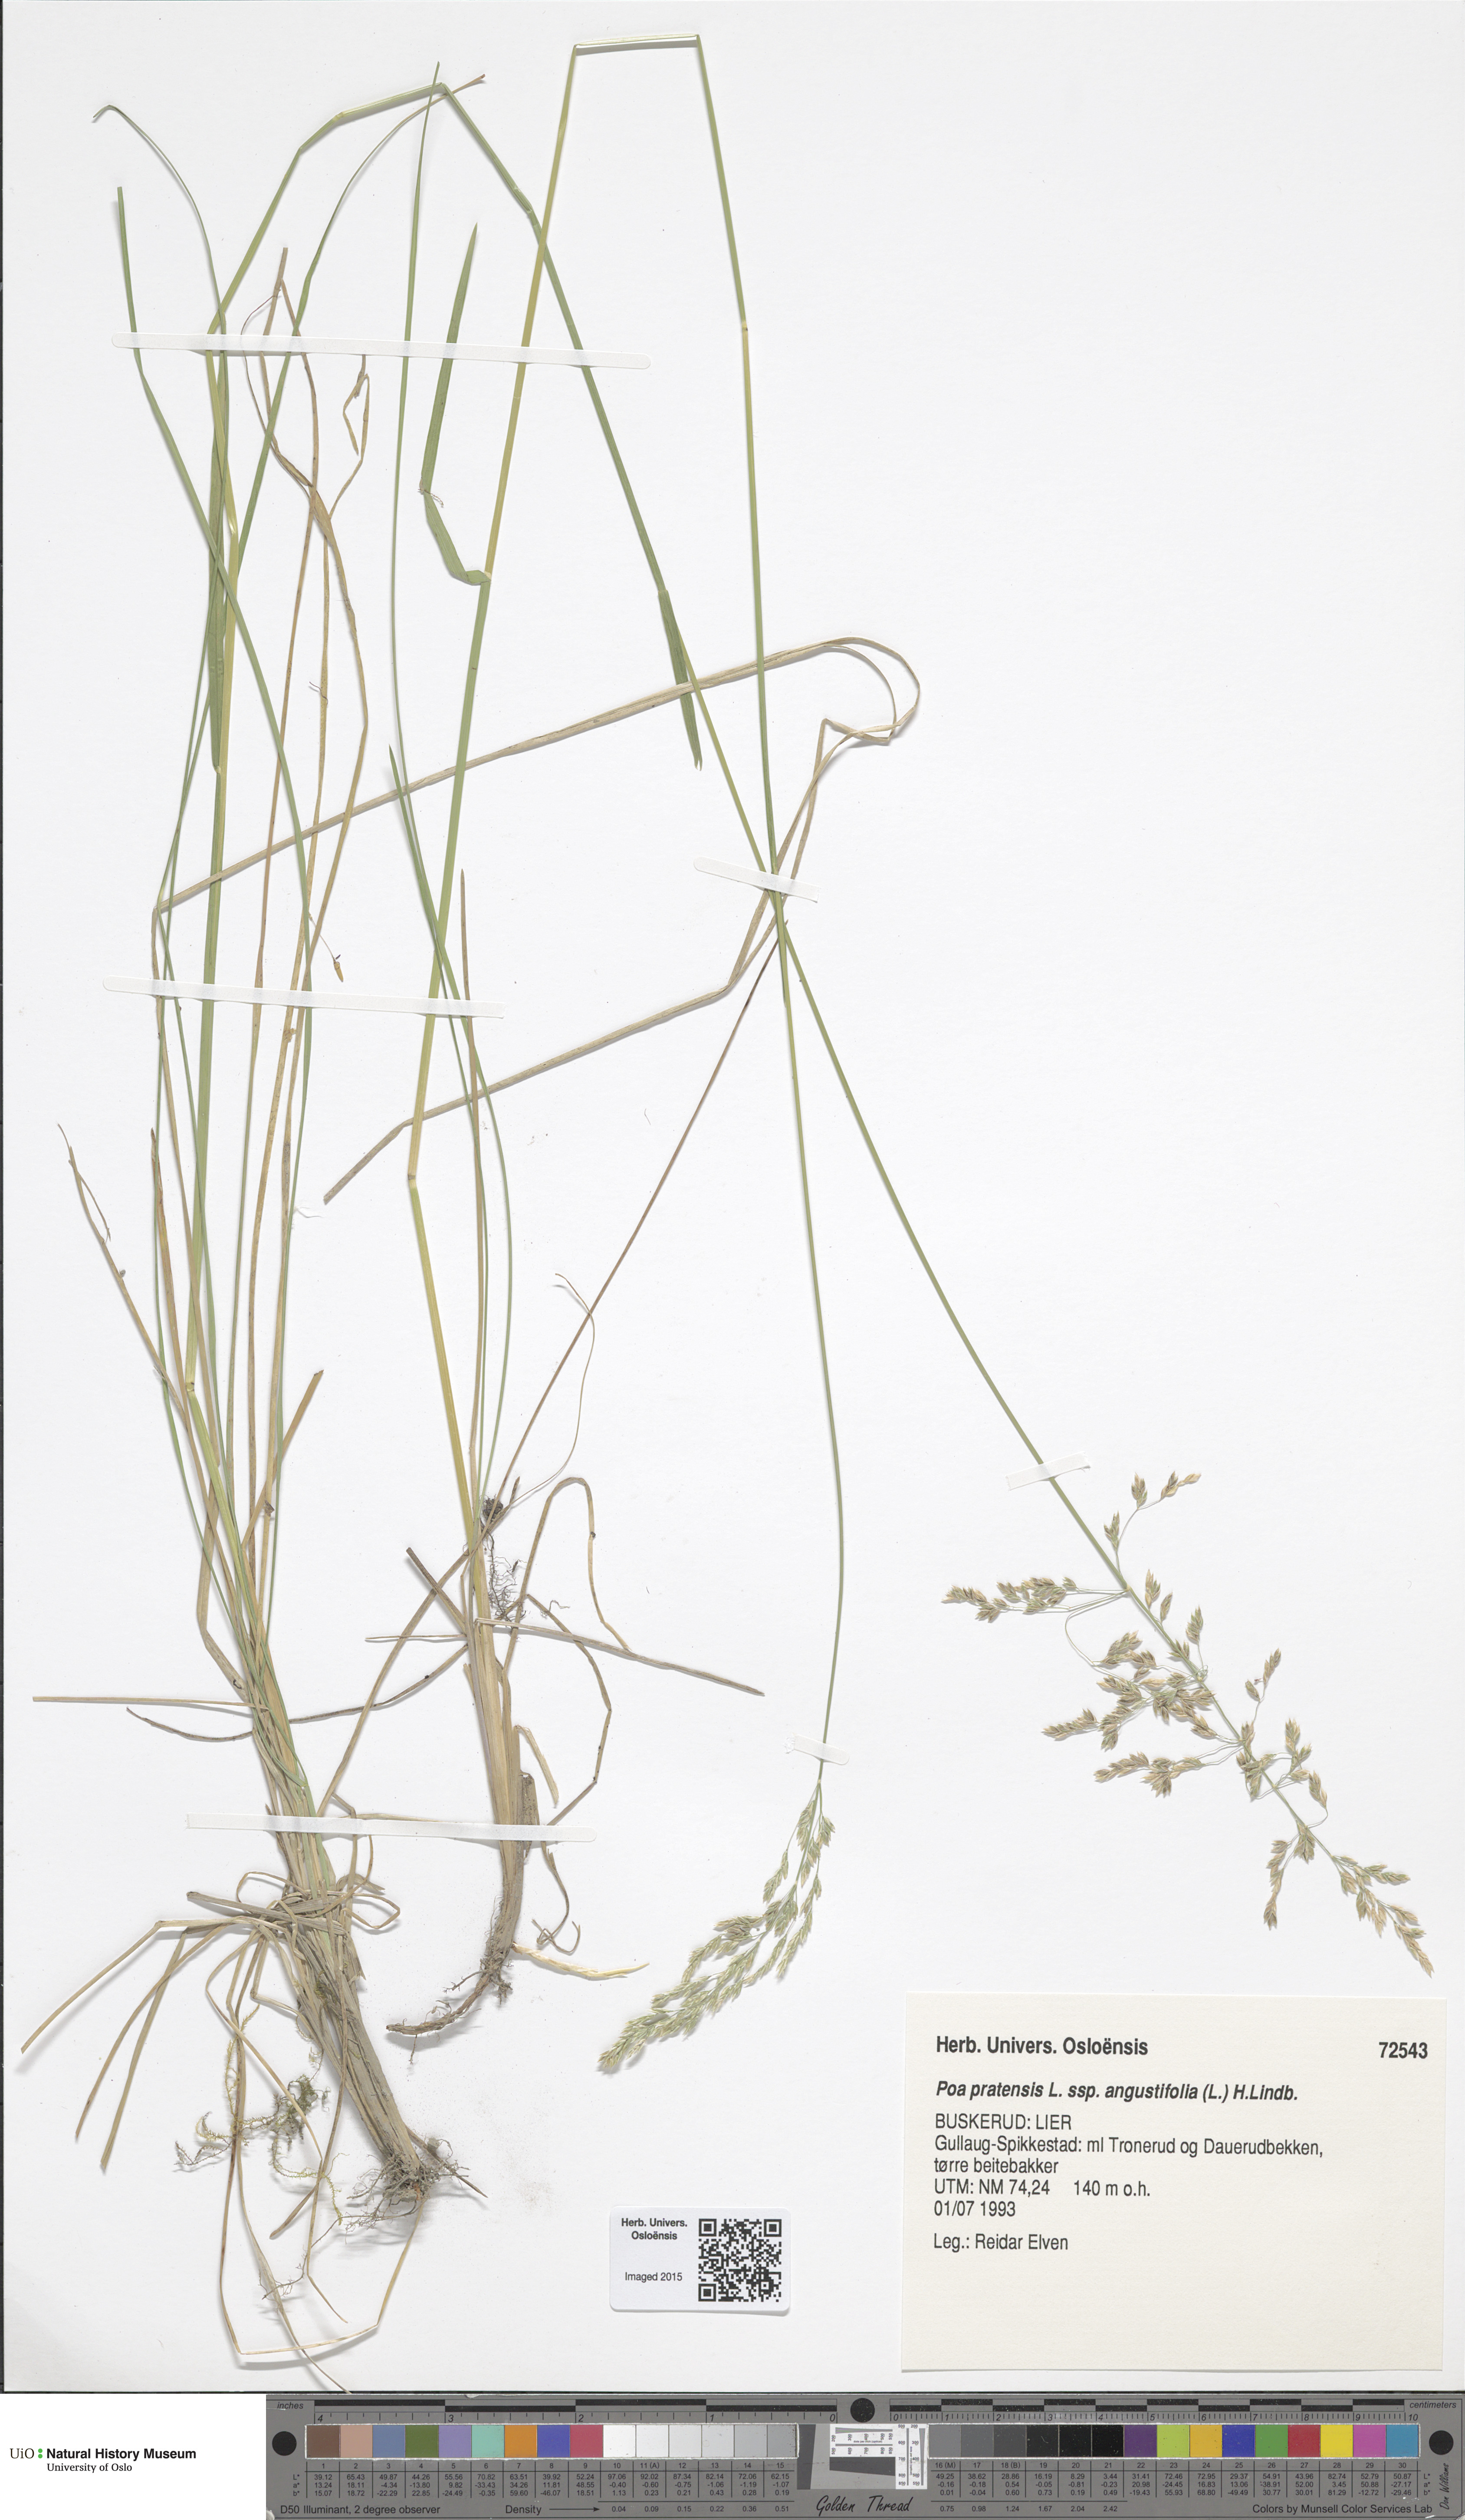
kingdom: Plantae
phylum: Tracheophyta
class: Liliopsida
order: Poales
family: Poaceae
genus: Poa
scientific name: Poa angustifolia
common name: Narrow-leaved meadow-grass
